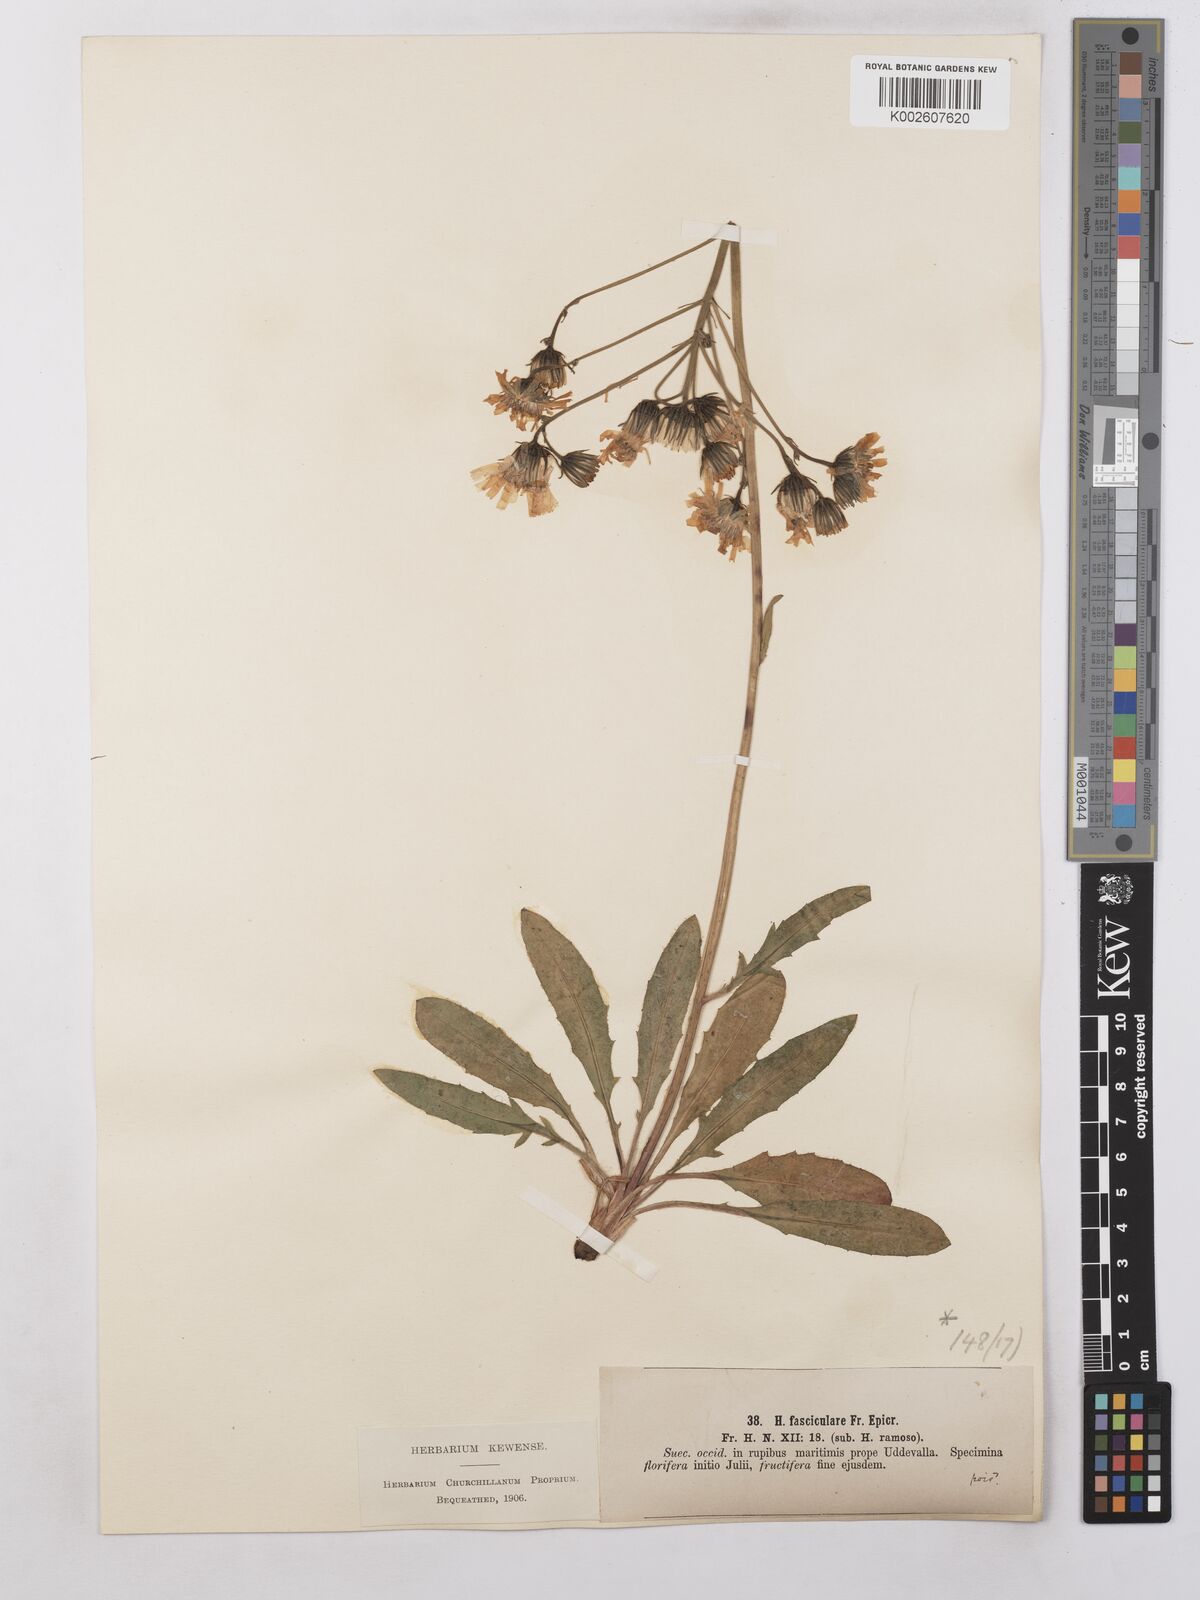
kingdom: Plantae
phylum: Tracheophyta
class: Magnoliopsida
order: Asterales
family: Asteraceae
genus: Hieracium
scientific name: Hieracium subramosum
